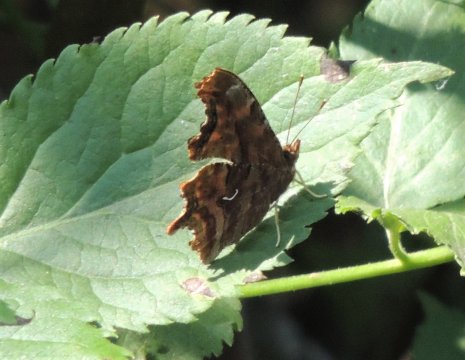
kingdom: Animalia
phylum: Arthropoda
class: Insecta
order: Lepidoptera
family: Nymphalidae
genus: Polygonia
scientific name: Polygonia satyrus
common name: Satyr Comma
